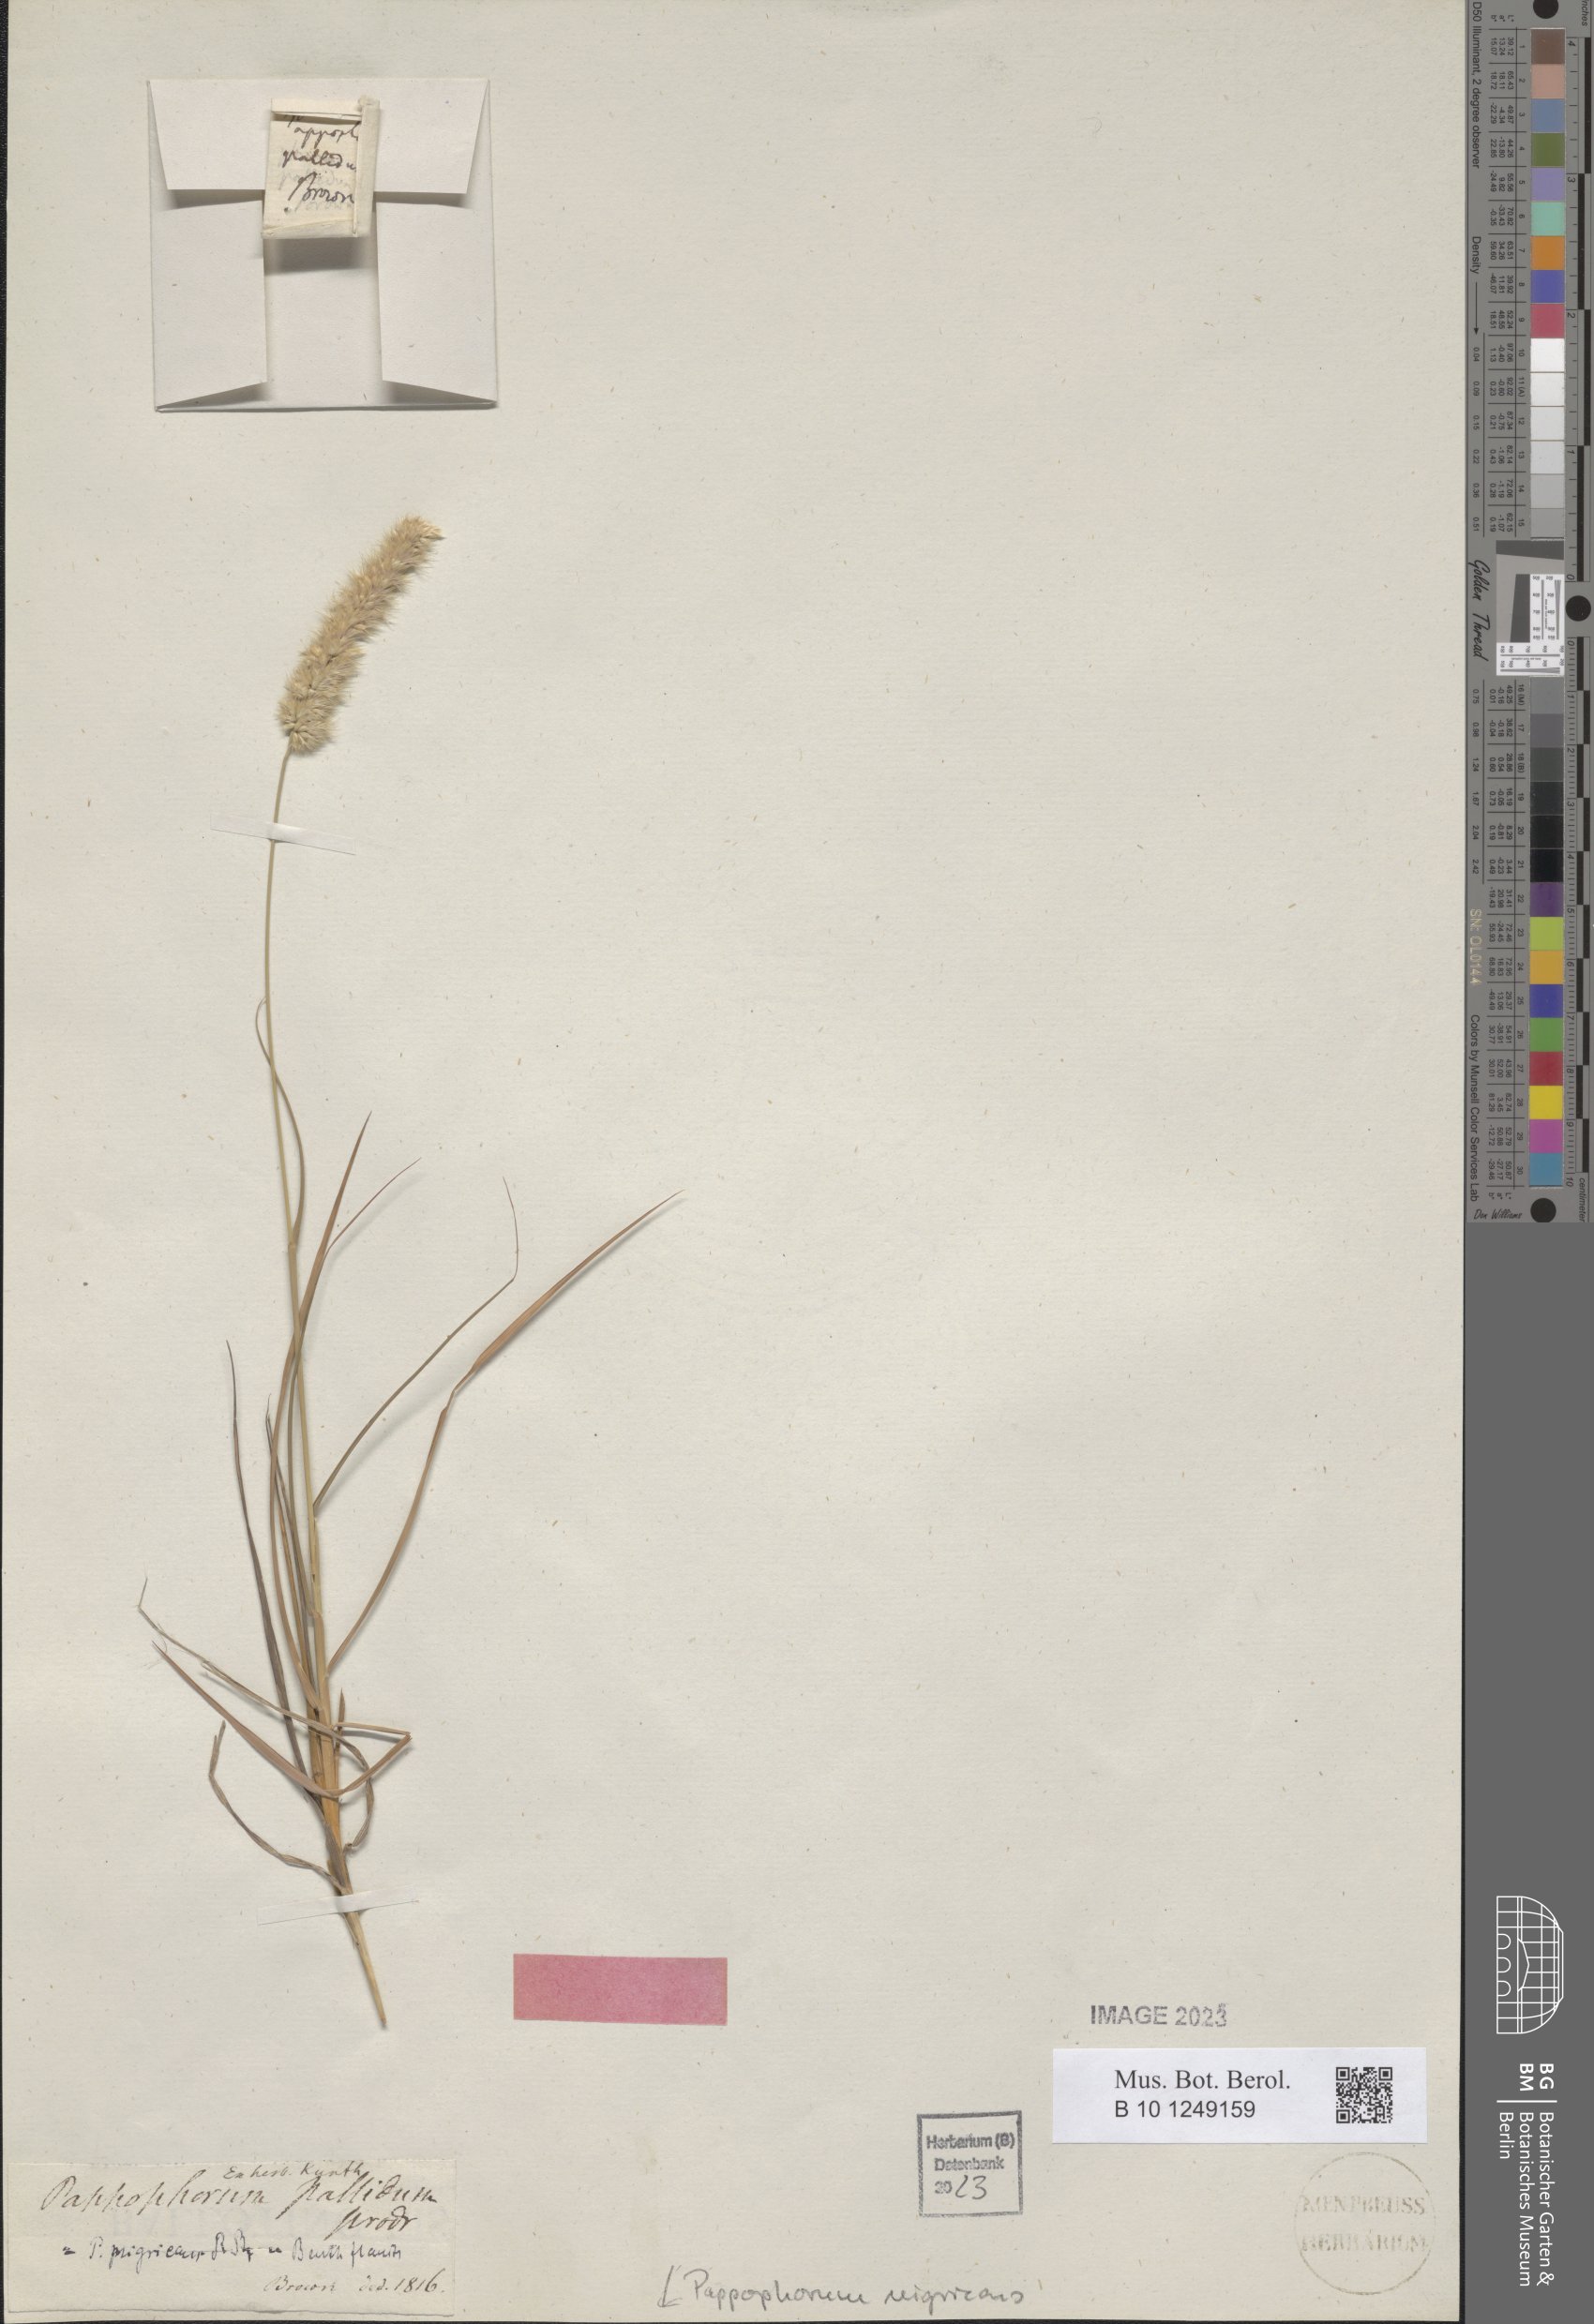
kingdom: Plantae
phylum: Tracheophyta
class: Liliopsida
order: Poales
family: Poaceae
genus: Enneapogon
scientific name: Enneapogon nigricans
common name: Pappus grass
